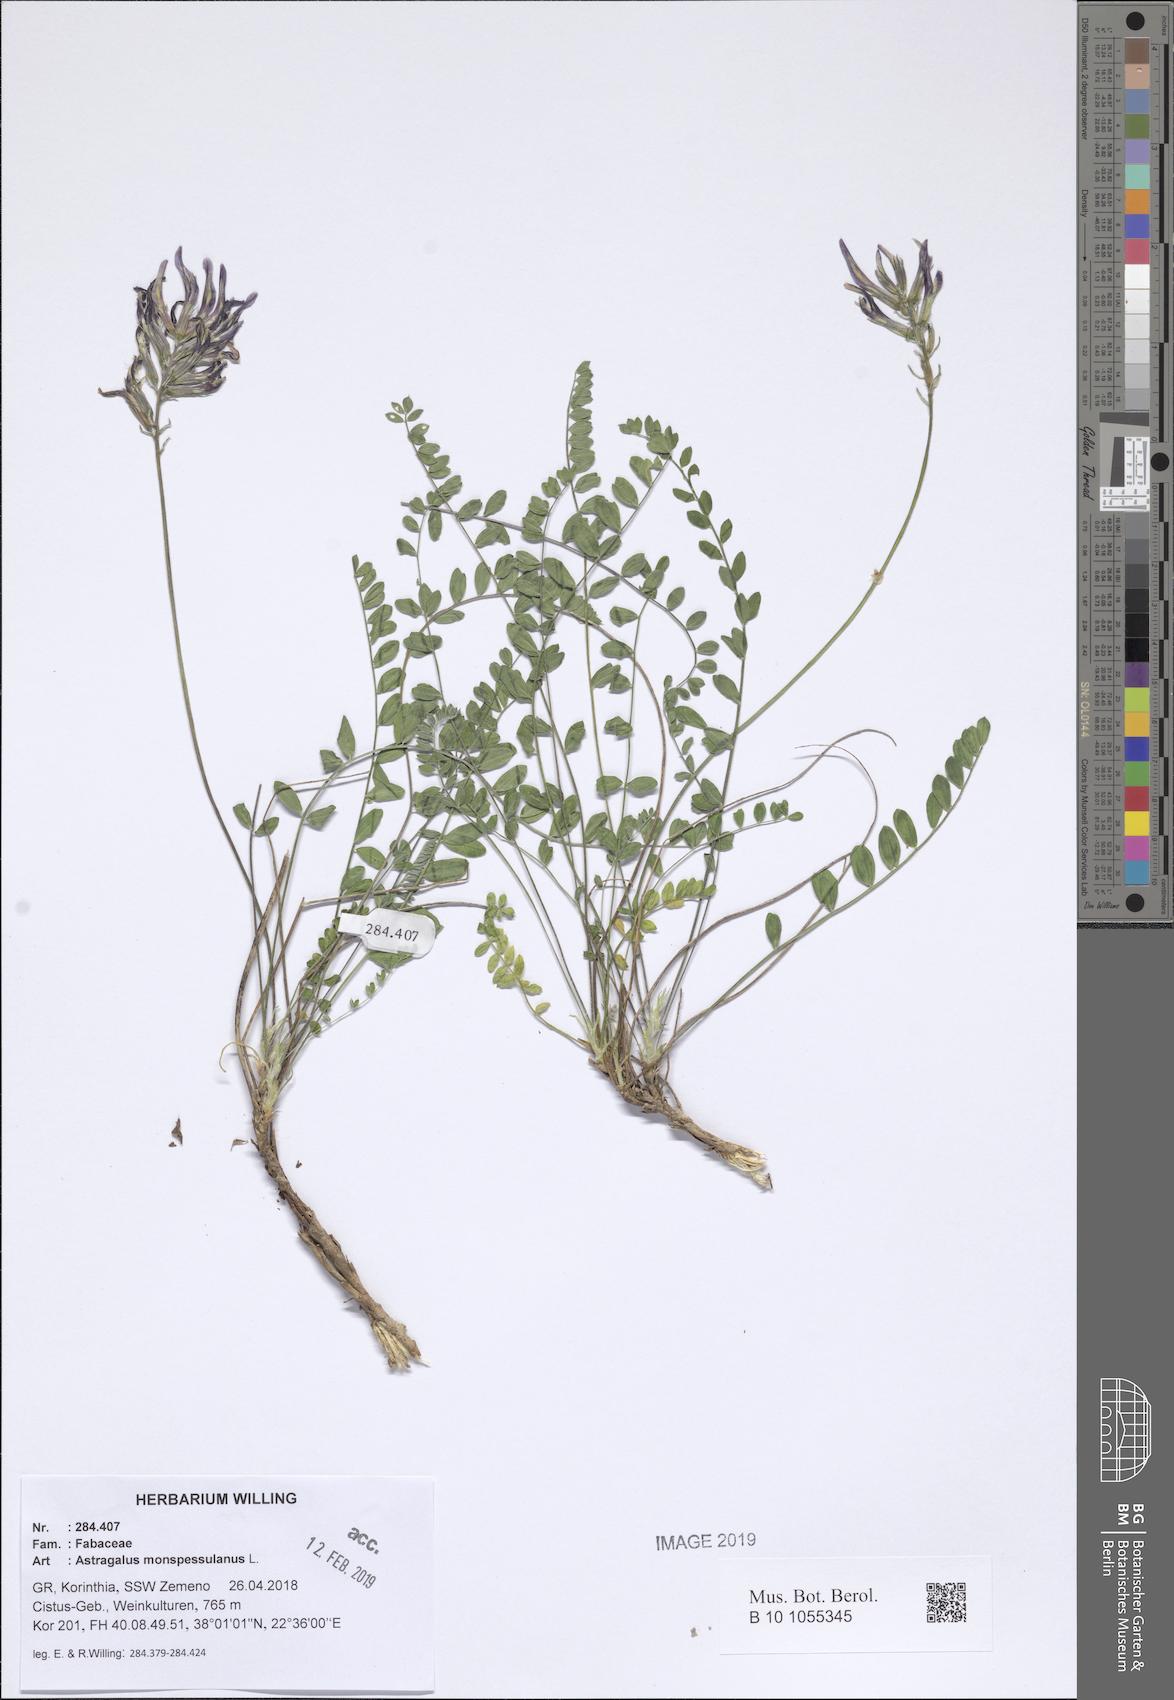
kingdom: Plantae
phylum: Tracheophyta
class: Magnoliopsida
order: Fabales
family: Fabaceae
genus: Astragalus
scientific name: Astragalus monspessulanus
